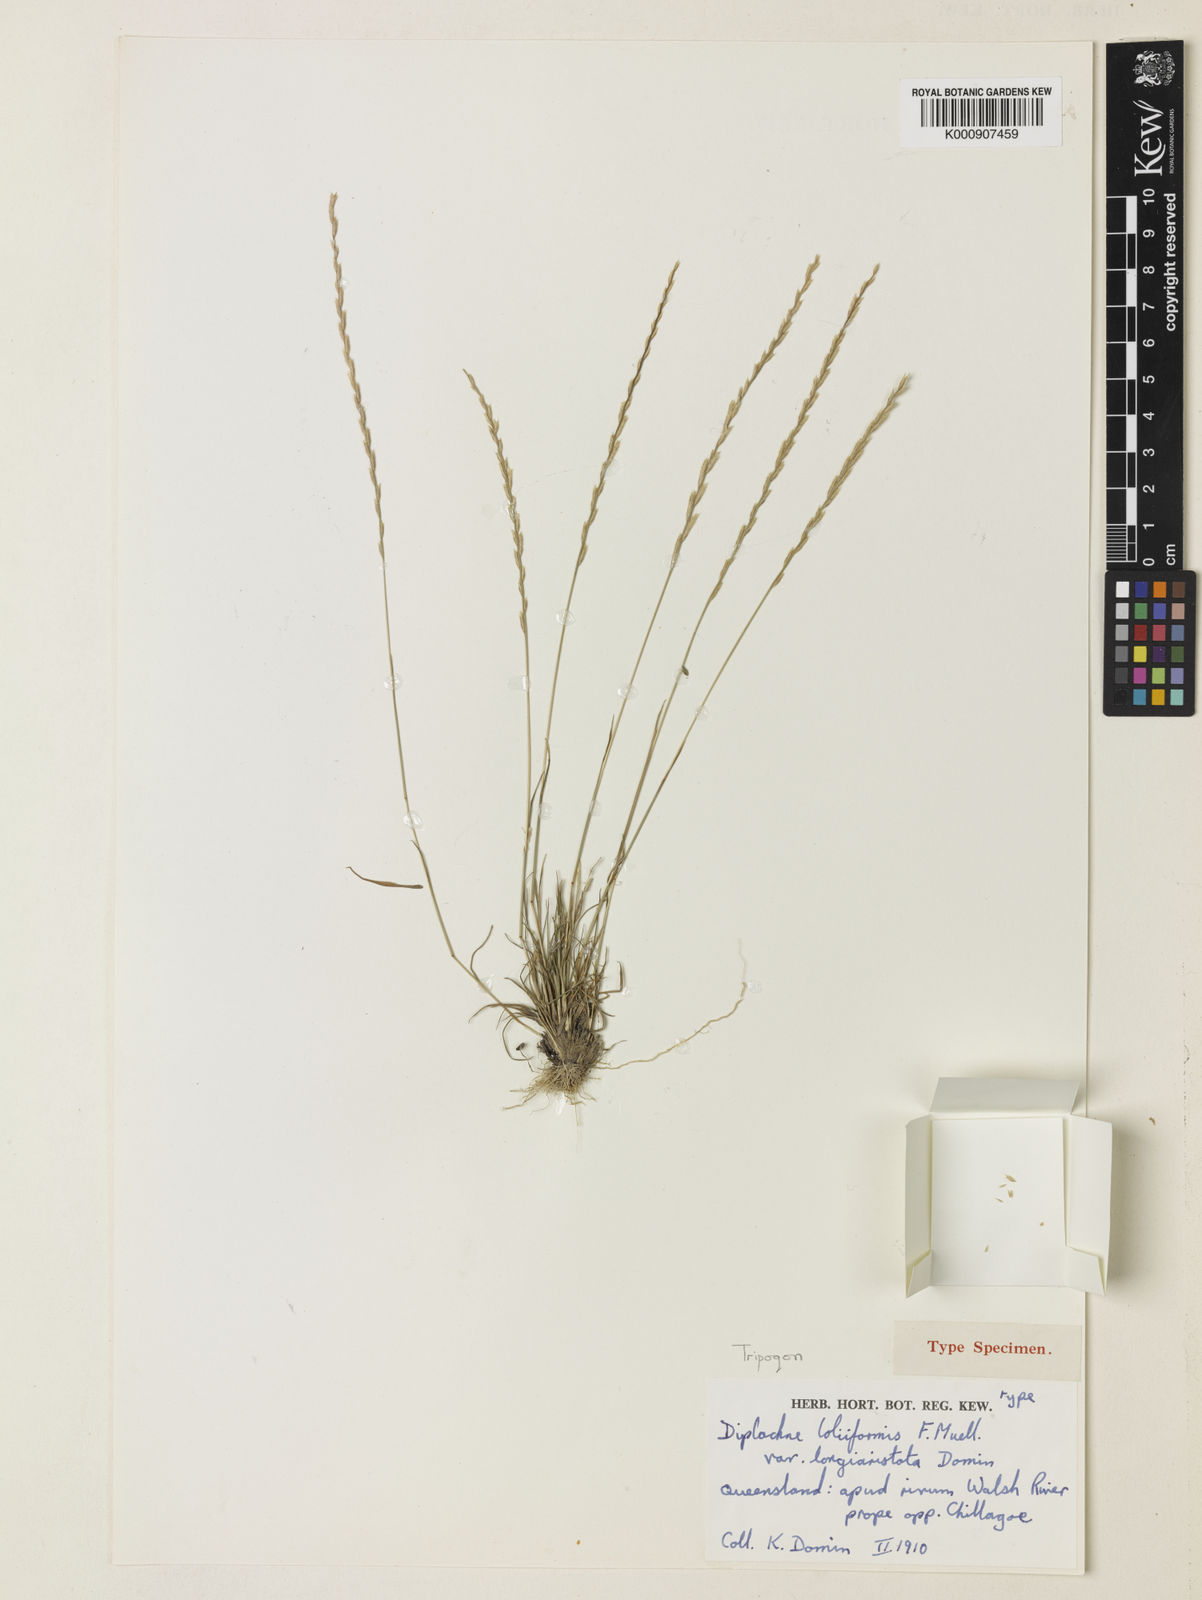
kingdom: Plantae
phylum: Tracheophyta
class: Liliopsida
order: Poales
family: Poaceae
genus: Tripogonella
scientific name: Tripogonella loliiformis
